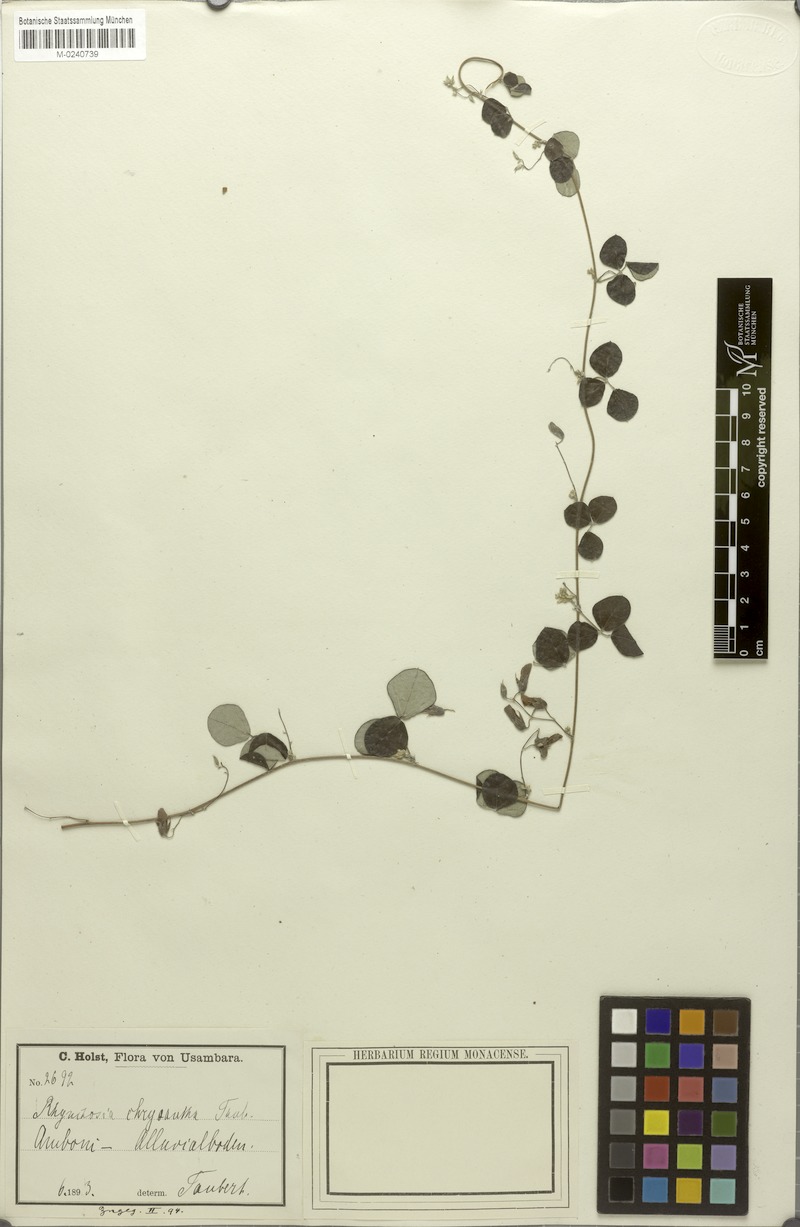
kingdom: Plantae
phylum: Tracheophyta
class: Magnoliopsida
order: Fabales
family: Fabaceae
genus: Rhynchosia
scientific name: Rhynchosia velutina
